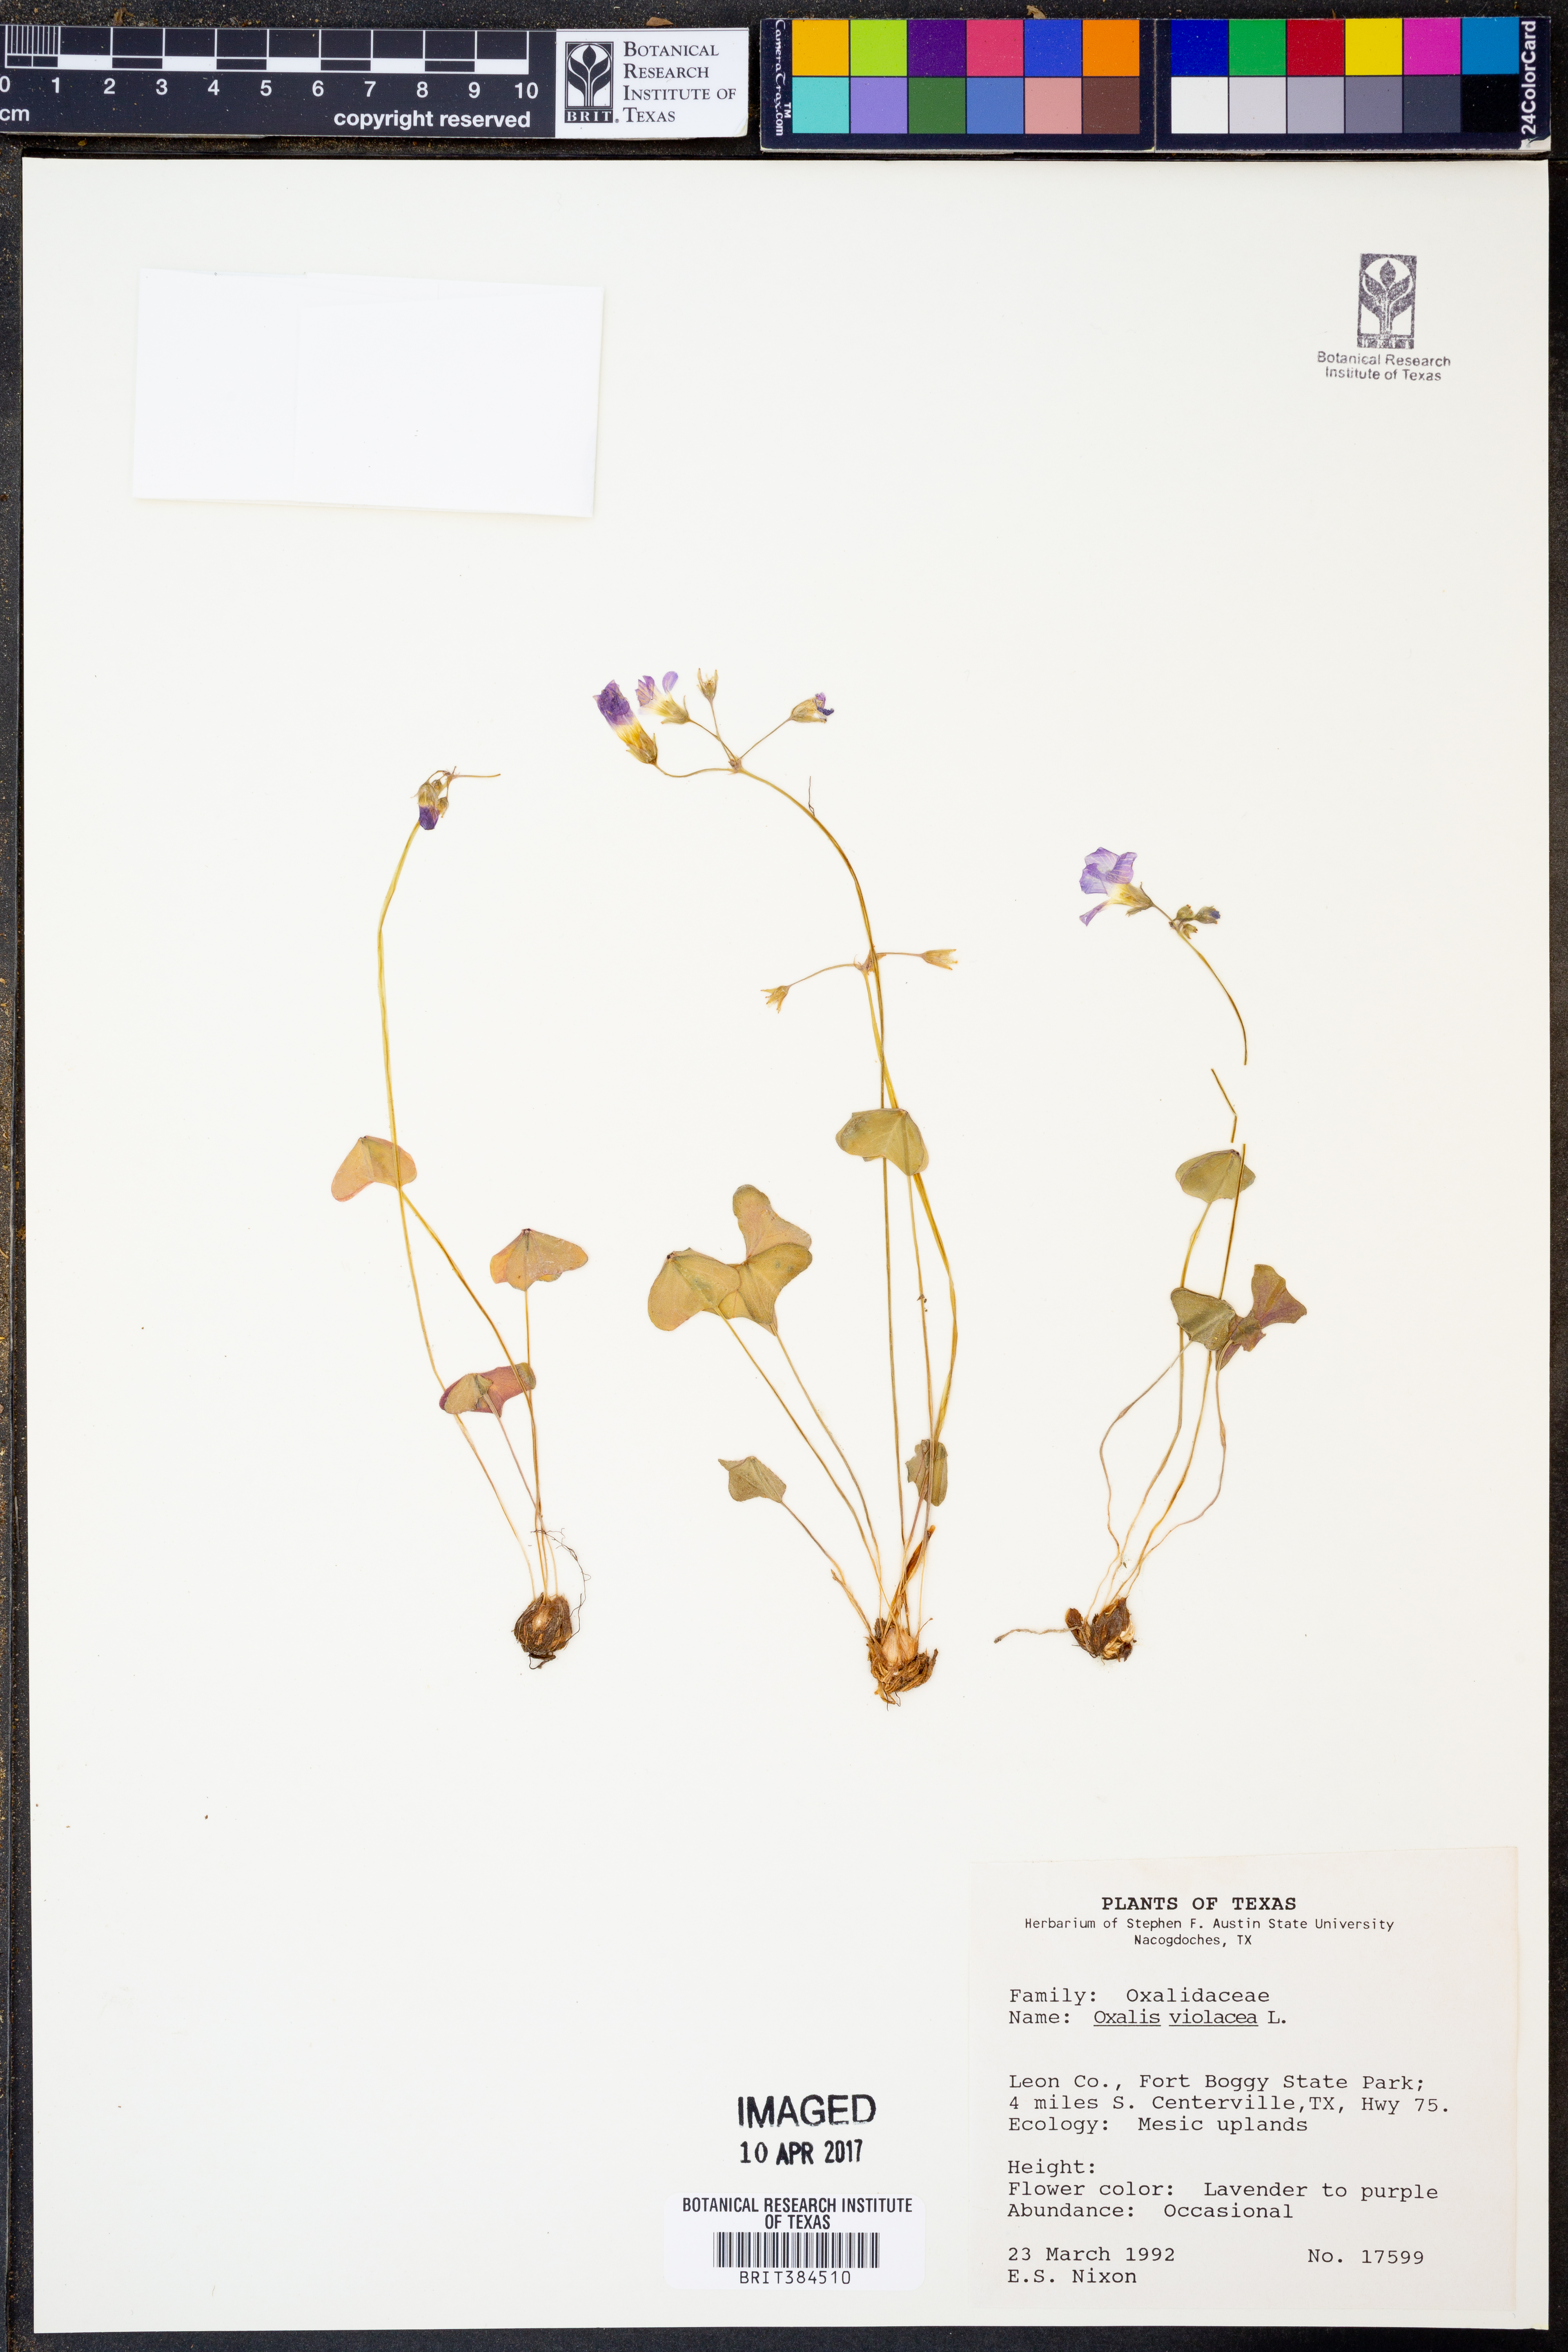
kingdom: Plantae
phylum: Tracheophyta
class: Magnoliopsida
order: Oxalidales
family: Oxalidaceae
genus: Oxalis
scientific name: Oxalis violacea
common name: Violet wood-sorrel
